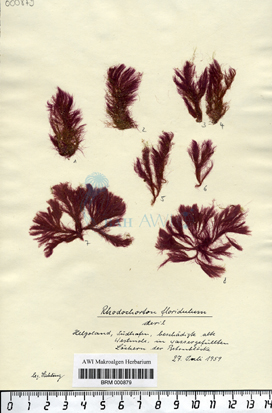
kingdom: Plantae
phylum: Rhodophyta
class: Florideophyceae
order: Palmariales
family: Rhodothamniellaceae
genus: Rhodothamniella
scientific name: Rhodothamniella floridula
